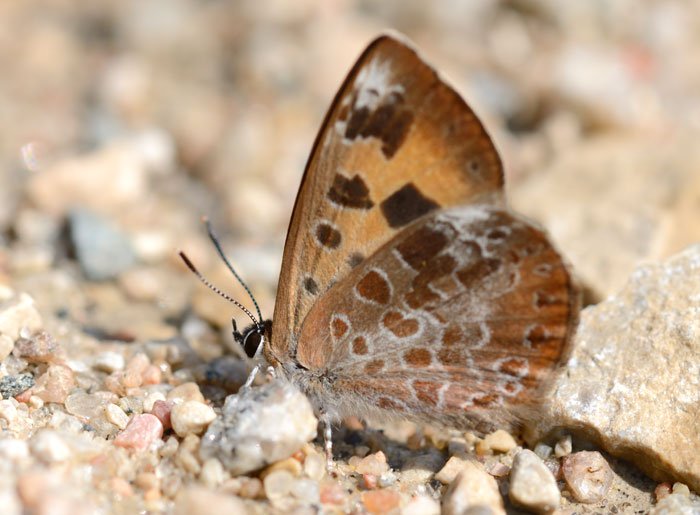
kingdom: Animalia
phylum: Arthropoda
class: Insecta
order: Lepidoptera
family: Lycaenidae
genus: Feniseca
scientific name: Feniseca tarquinius
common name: Harvester
